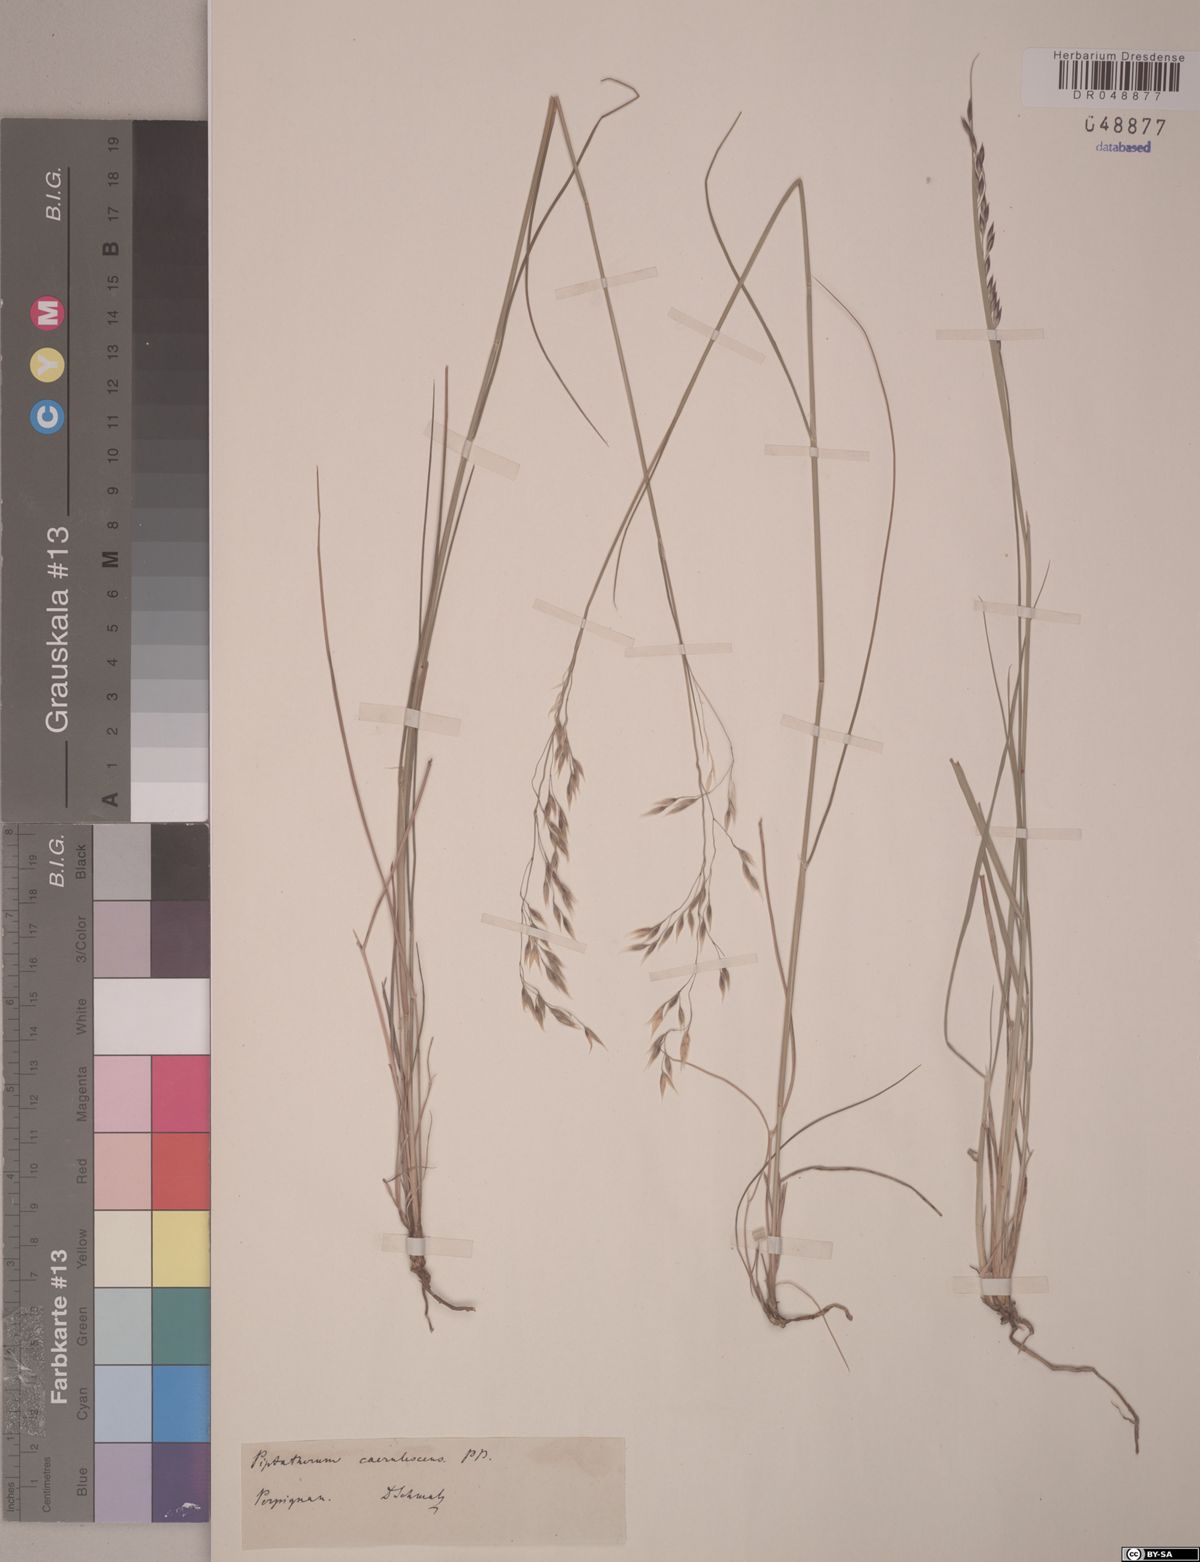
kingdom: Plantae
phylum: Tracheophyta
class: Liliopsida
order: Poales
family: Poaceae
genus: Piptatherum
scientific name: Piptatherum coerulescens
